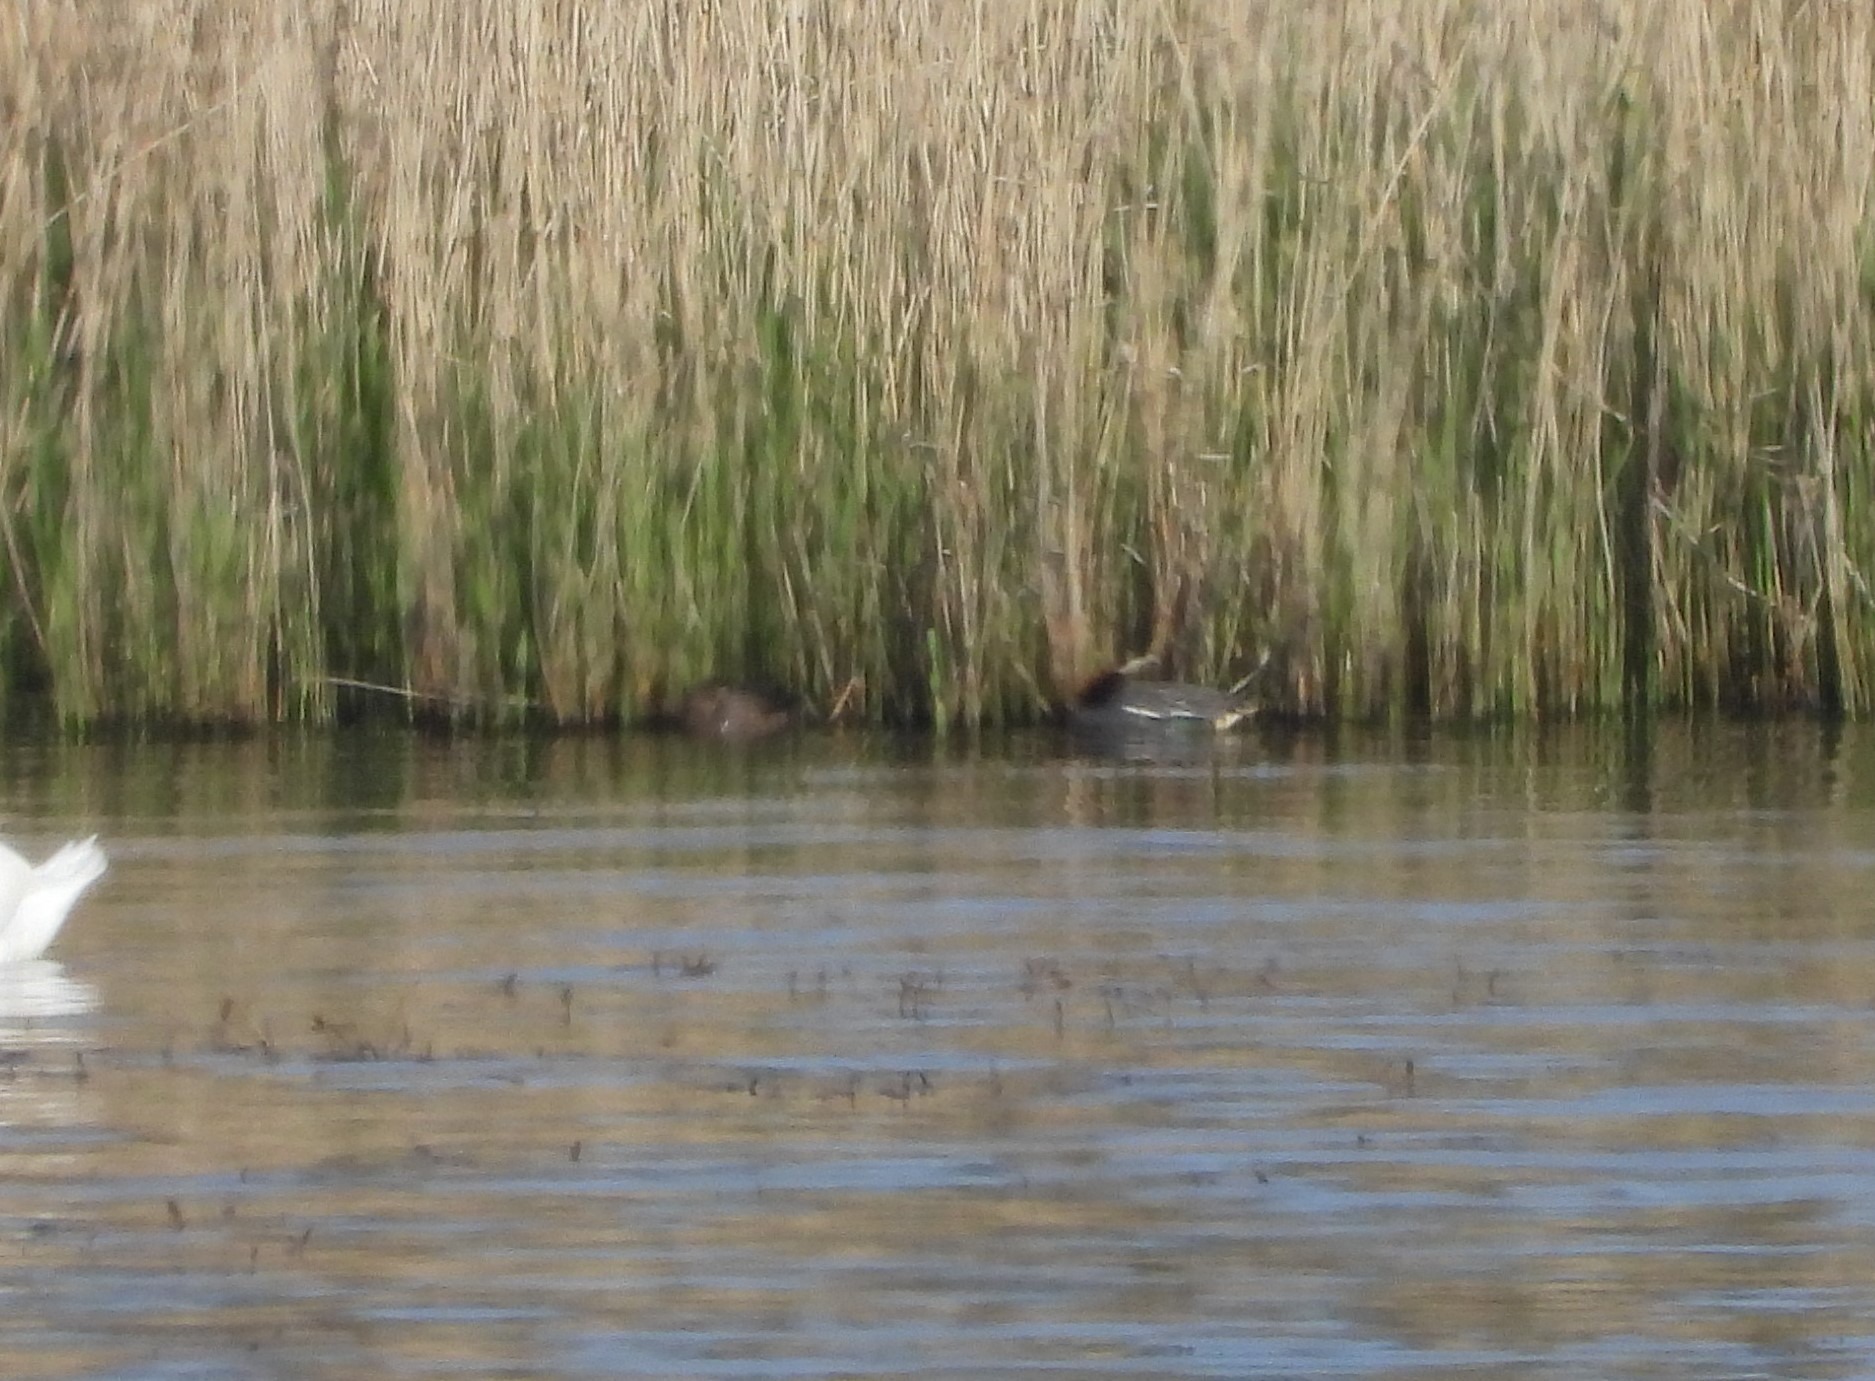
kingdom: Animalia
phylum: Chordata
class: Aves
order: Anseriformes
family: Anatidae
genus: Anas
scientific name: Anas crecca
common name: Krikand
